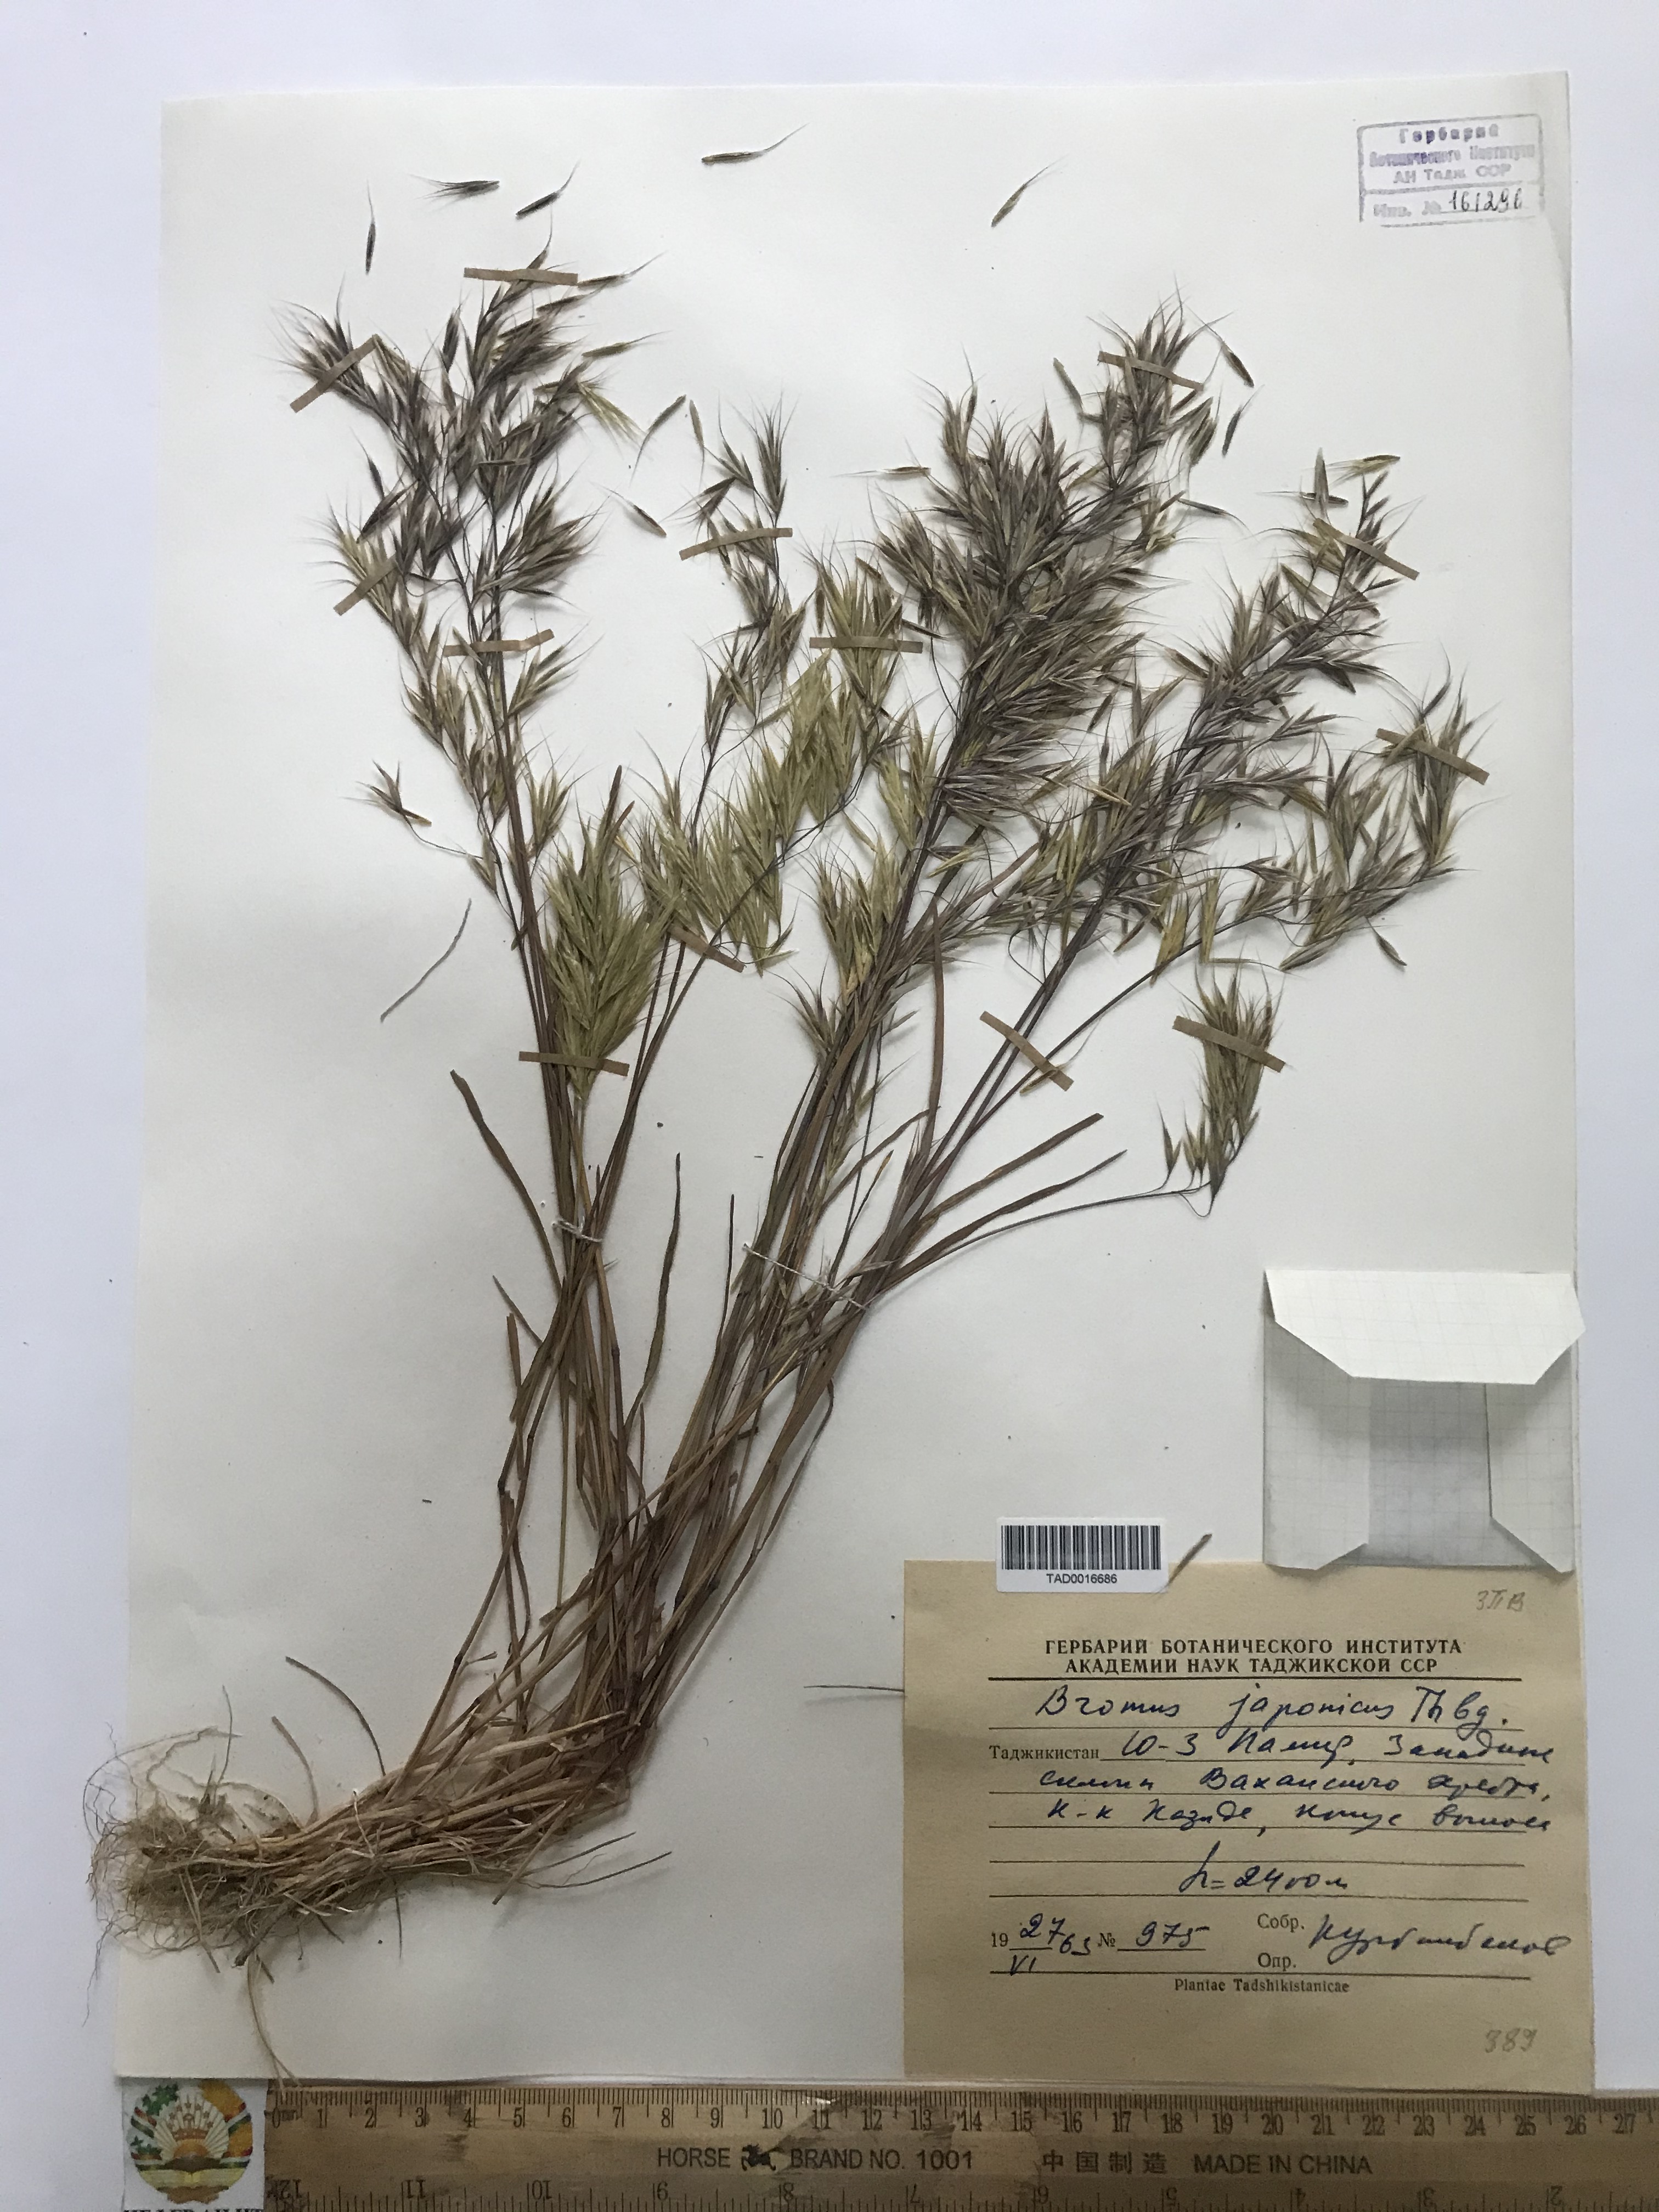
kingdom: Plantae
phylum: Tracheophyta
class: Liliopsida
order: Poales
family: Poaceae
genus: Bromus
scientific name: Bromus japonicus
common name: Japanese brome
